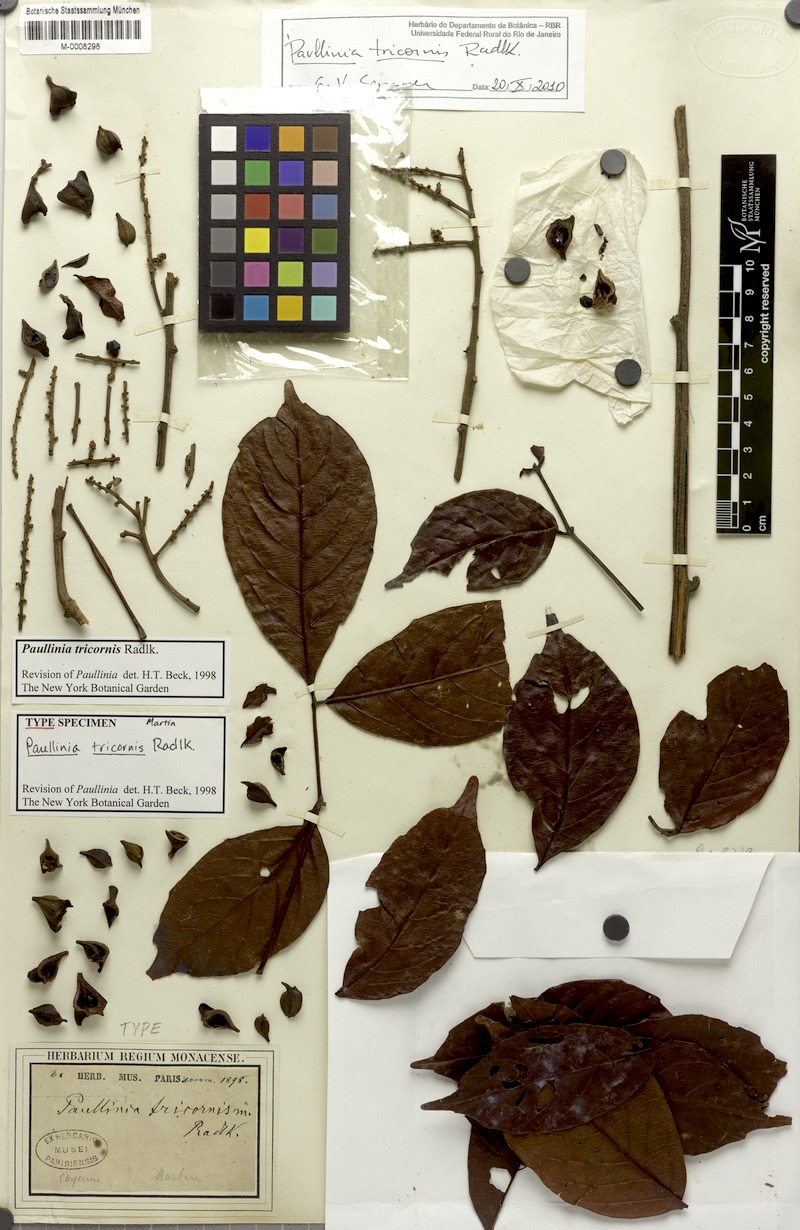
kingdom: Plantae
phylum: Tracheophyta
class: Magnoliopsida
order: Sapindales
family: Sapindaceae
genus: Paullinia
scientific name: Paullinia tricornis
